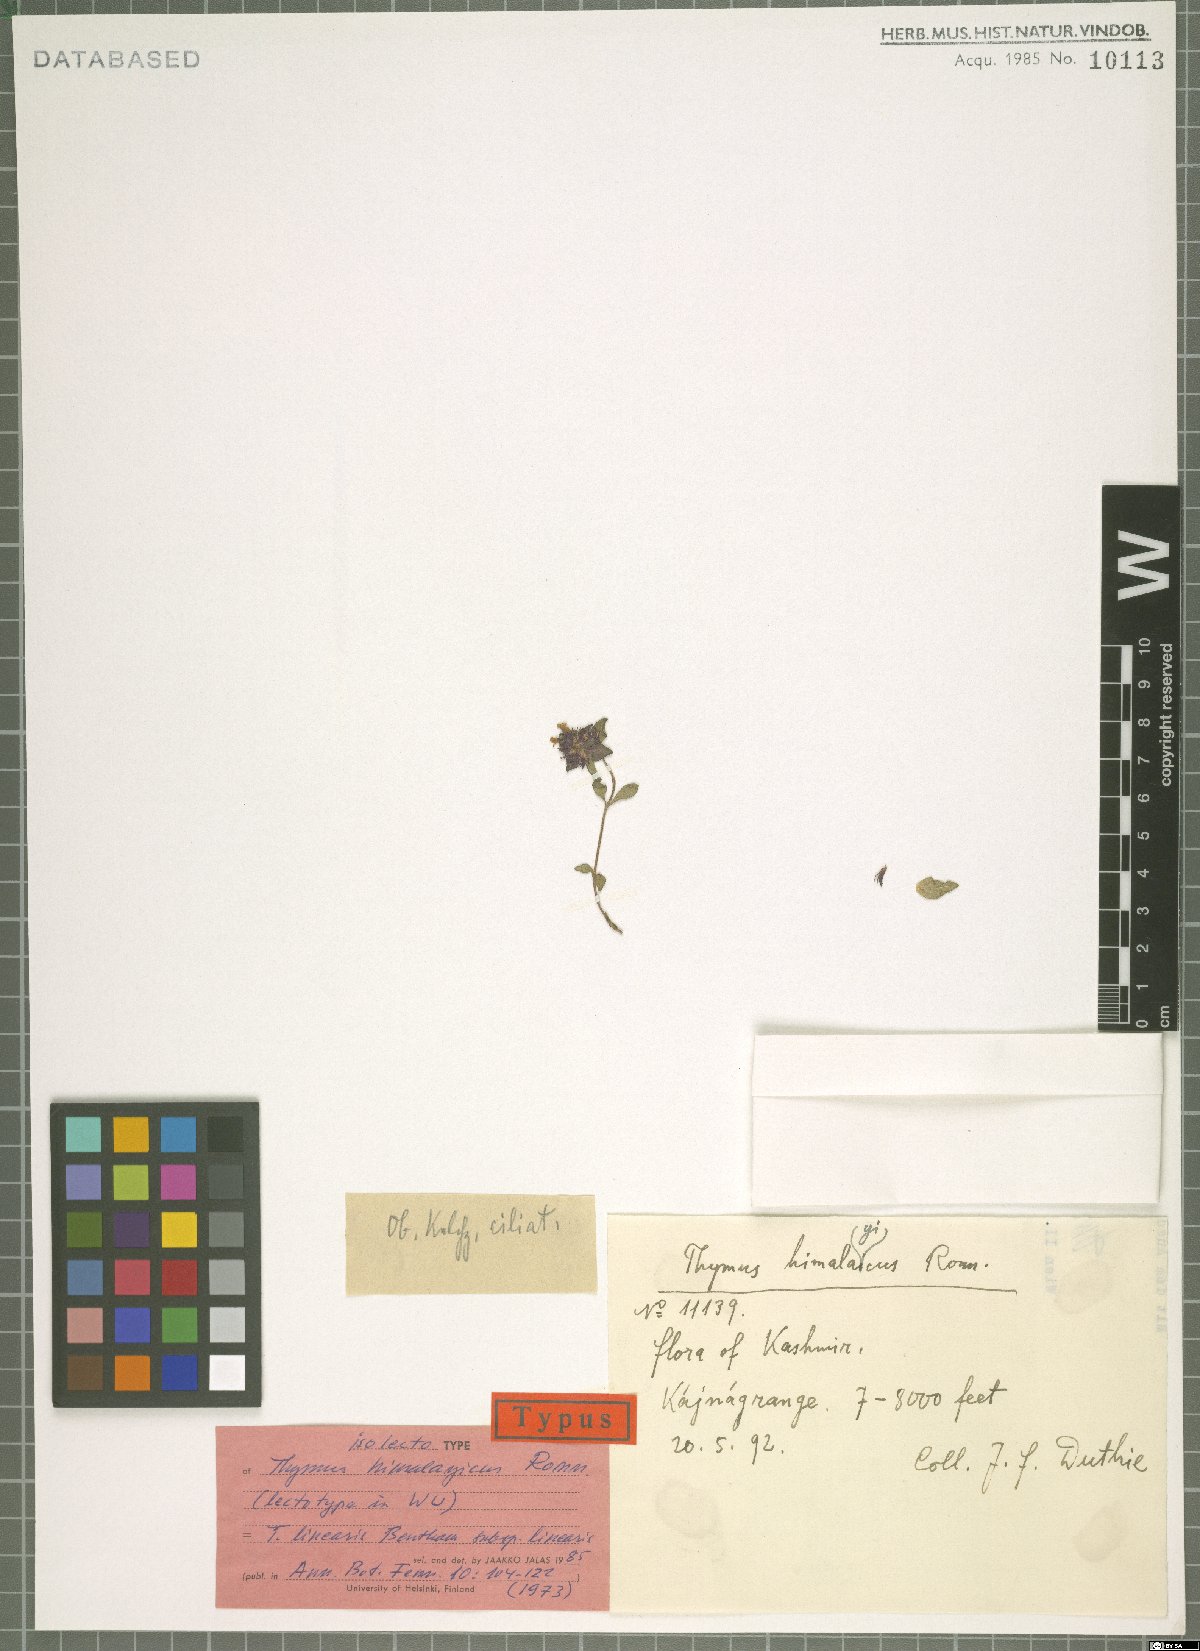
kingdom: Plantae
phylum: Tracheophyta
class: Magnoliopsida
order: Lamiales
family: Lamiaceae
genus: Thymus
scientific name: Thymus linearis
